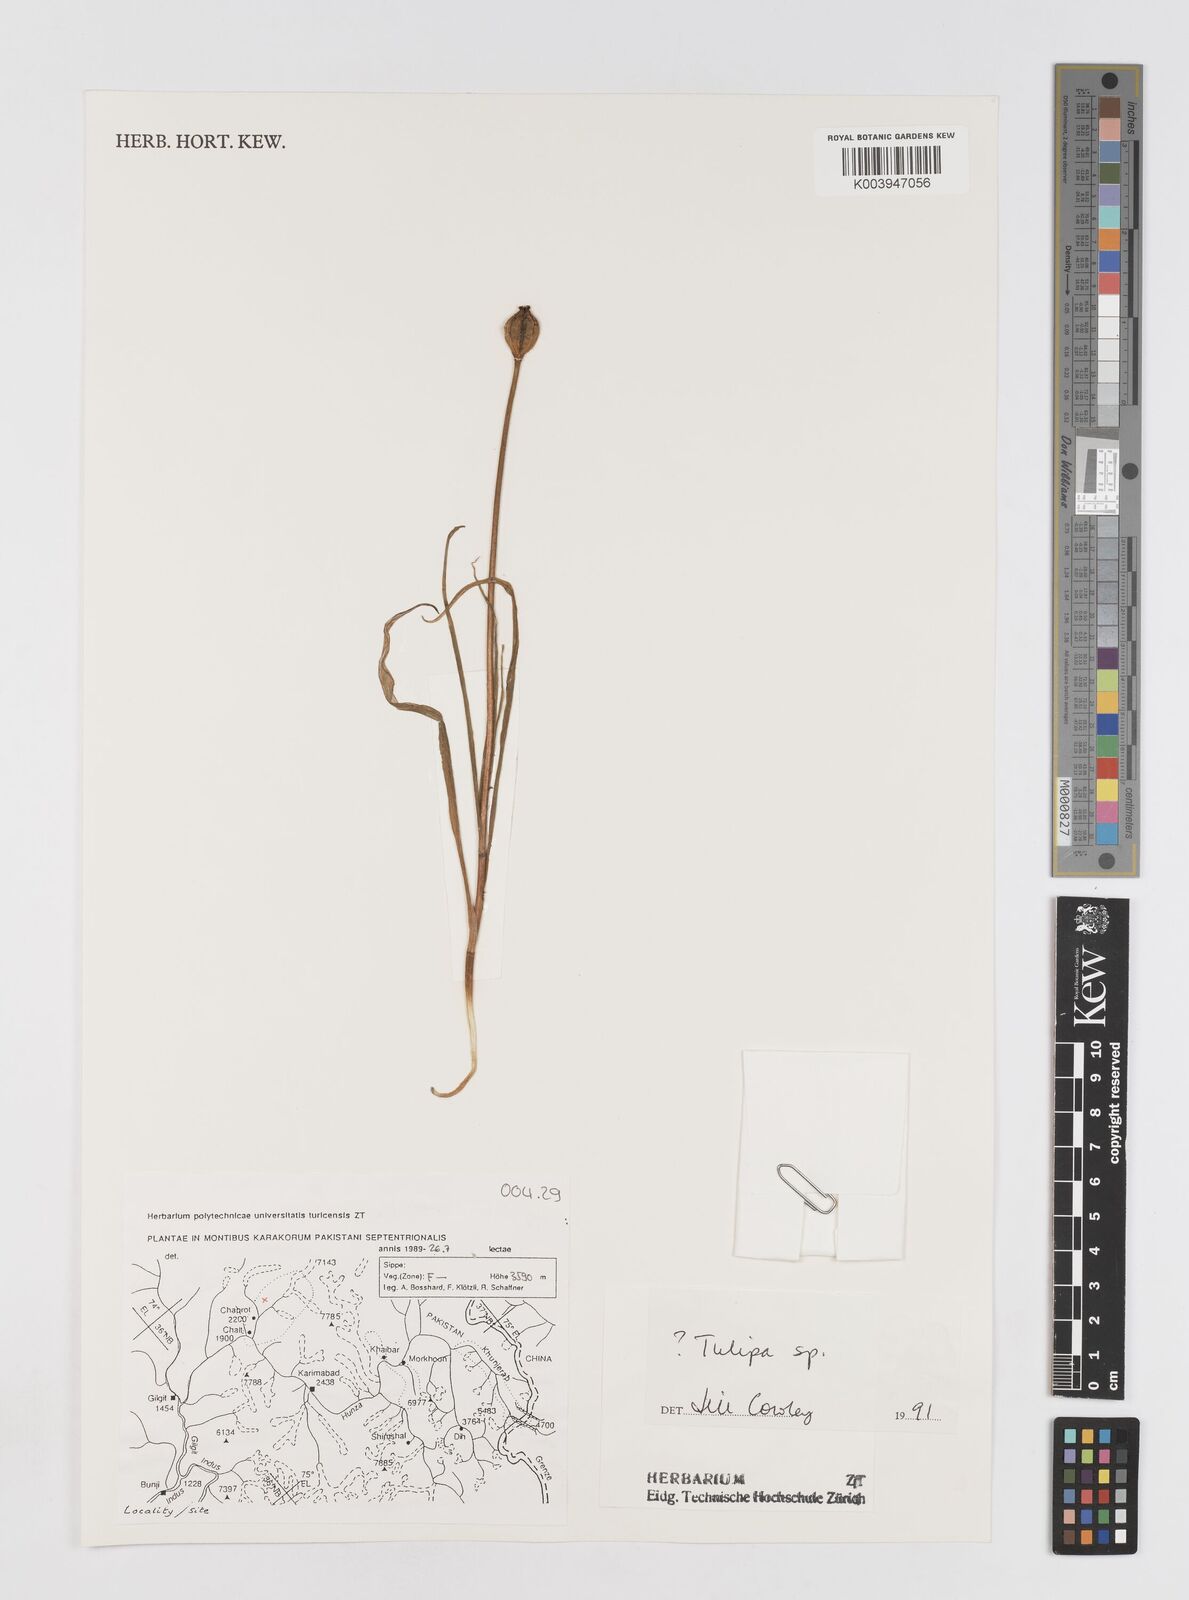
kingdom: Plantae
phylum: Tracheophyta
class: Liliopsida
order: Liliales
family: Liliaceae
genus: Tulipa
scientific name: Tulipa
